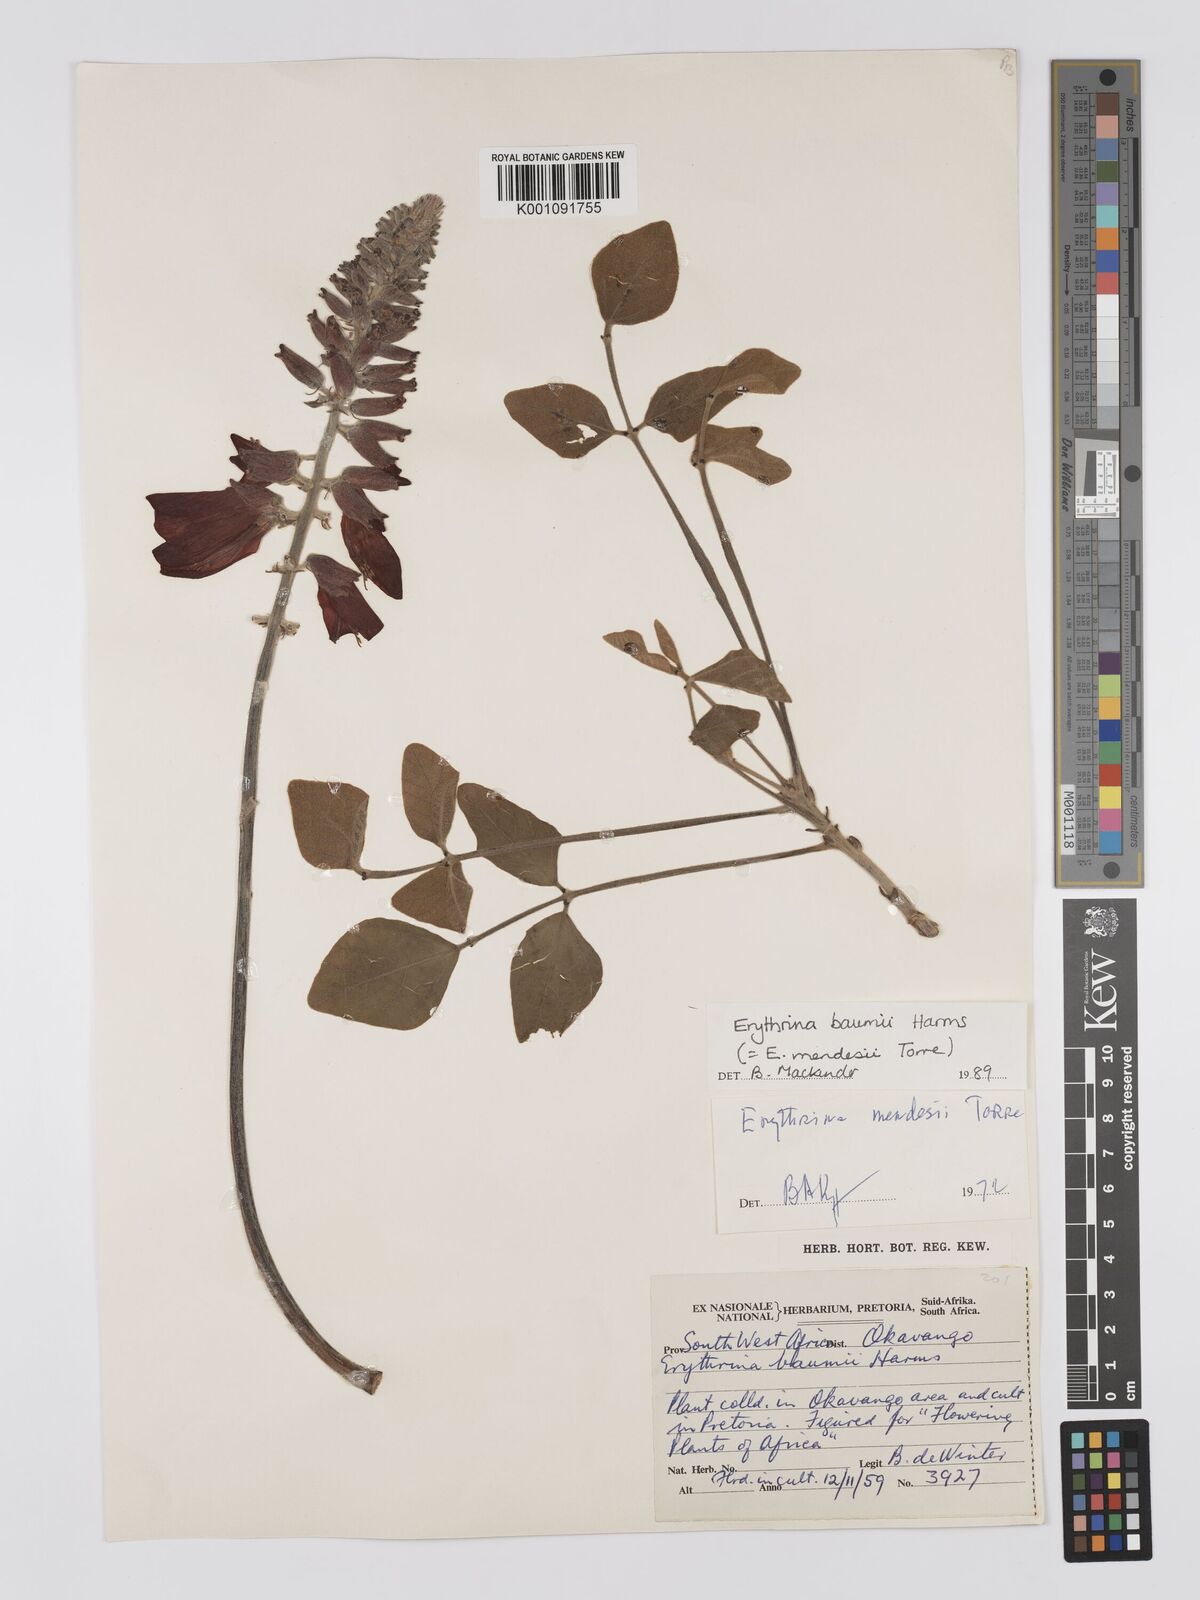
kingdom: Plantae
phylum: Tracheophyta
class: Magnoliopsida
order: Fabales
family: Fabaceae
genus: Erythrina
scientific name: Erythrina baumii
